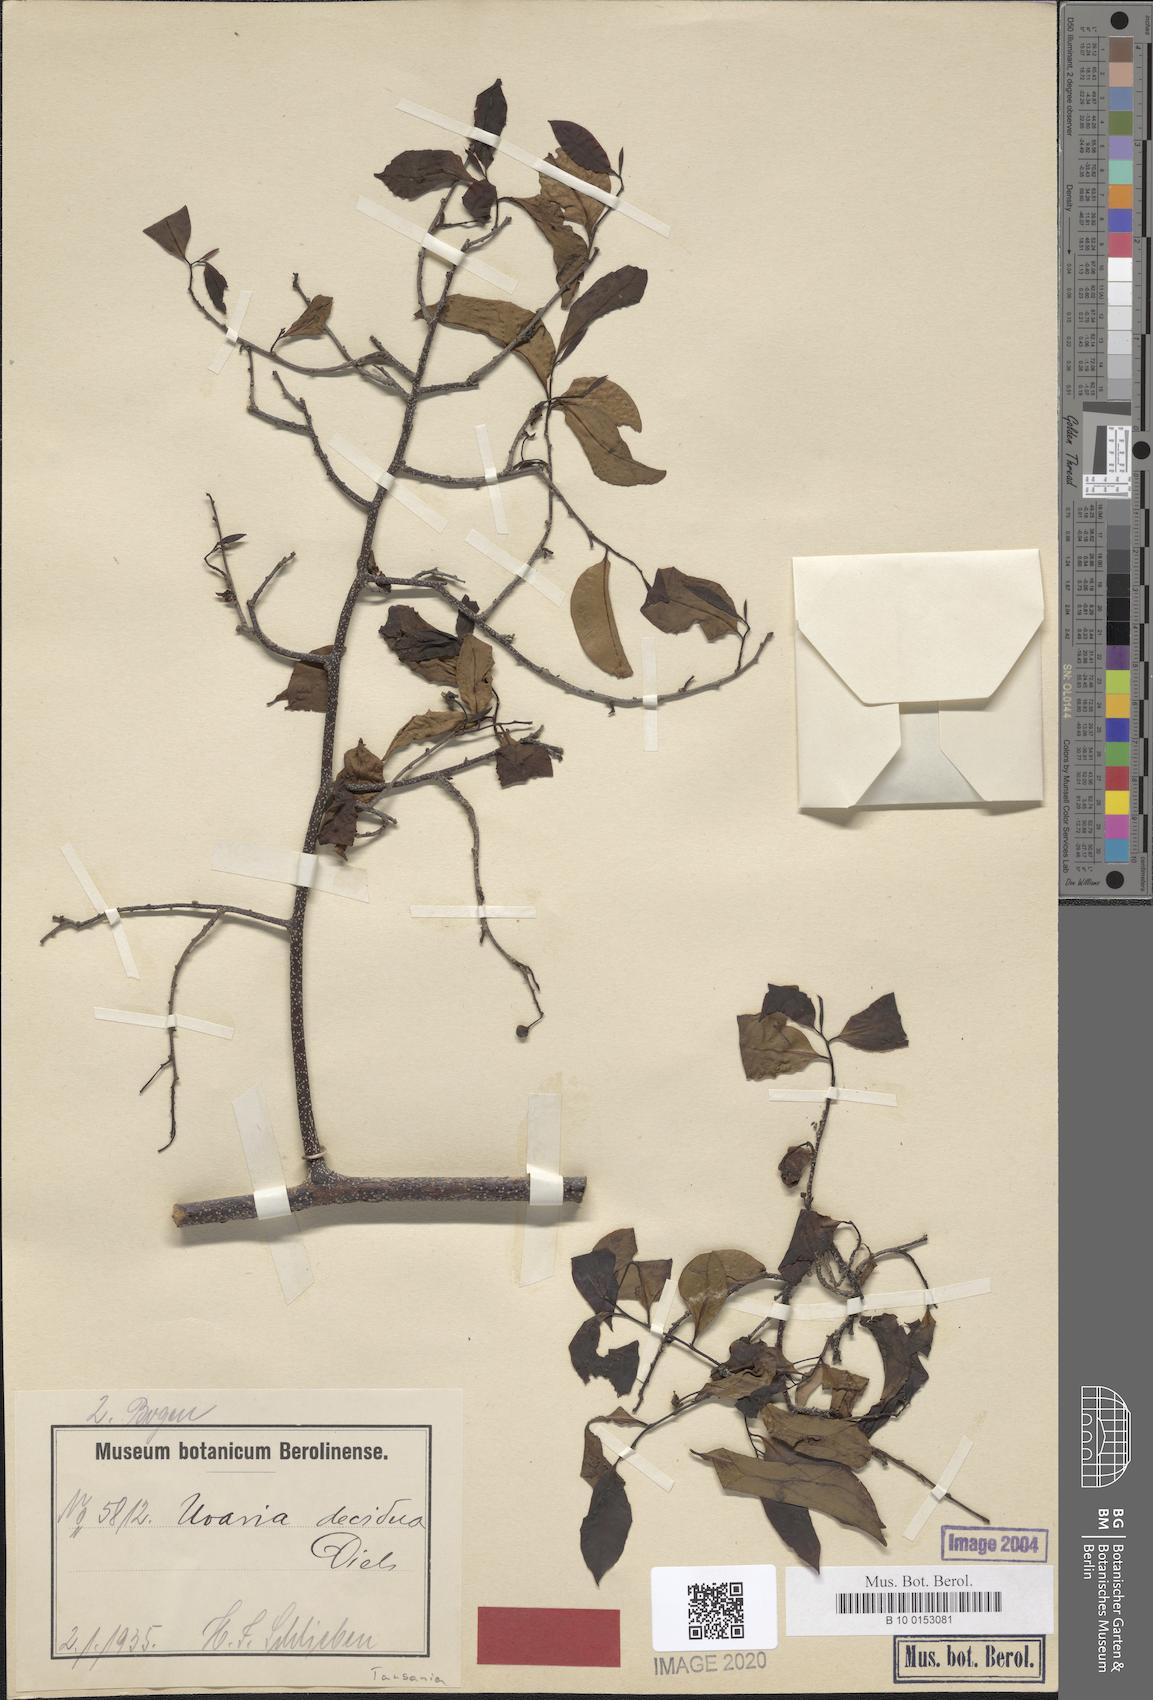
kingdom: Plantae
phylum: Tracheophyta
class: Magnoliopsida
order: Magnoliales
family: Annonaceae
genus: Uvaria
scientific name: Uvaria decidua
